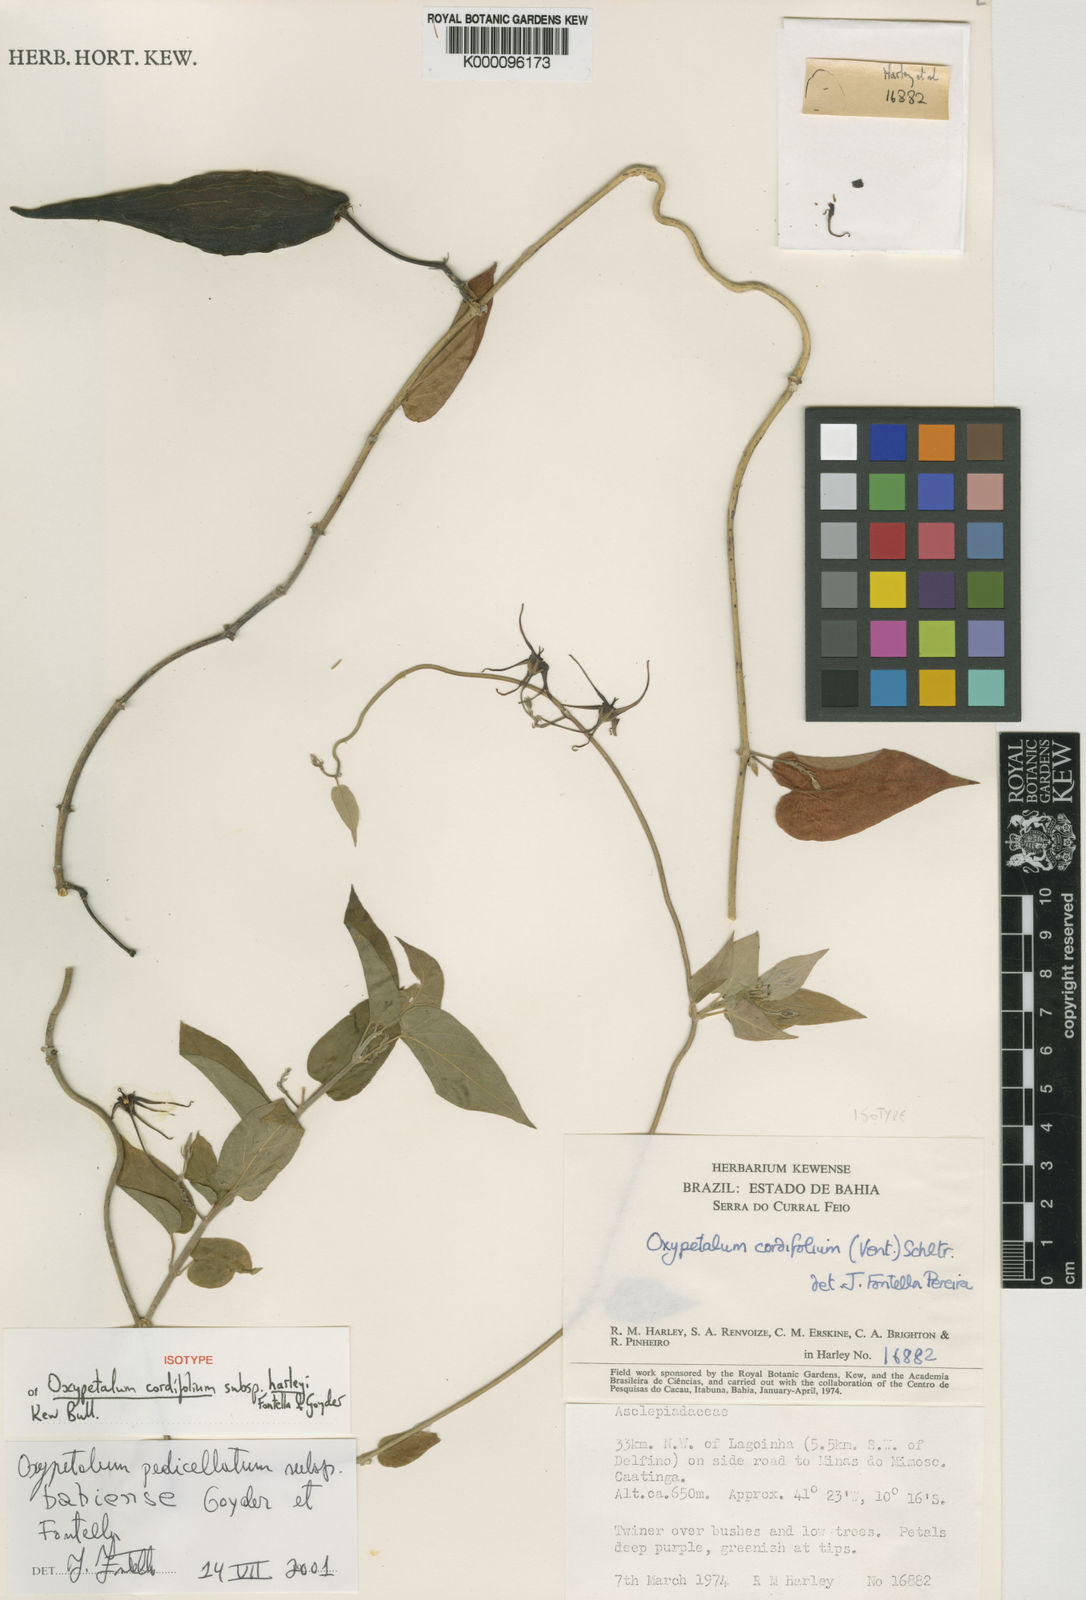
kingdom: Plantae
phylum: Tracheophyta
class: Magnoliopsida
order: Gentianales
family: Apocynaceae
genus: Oxypetalum
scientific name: Oxypetalum harleyi
